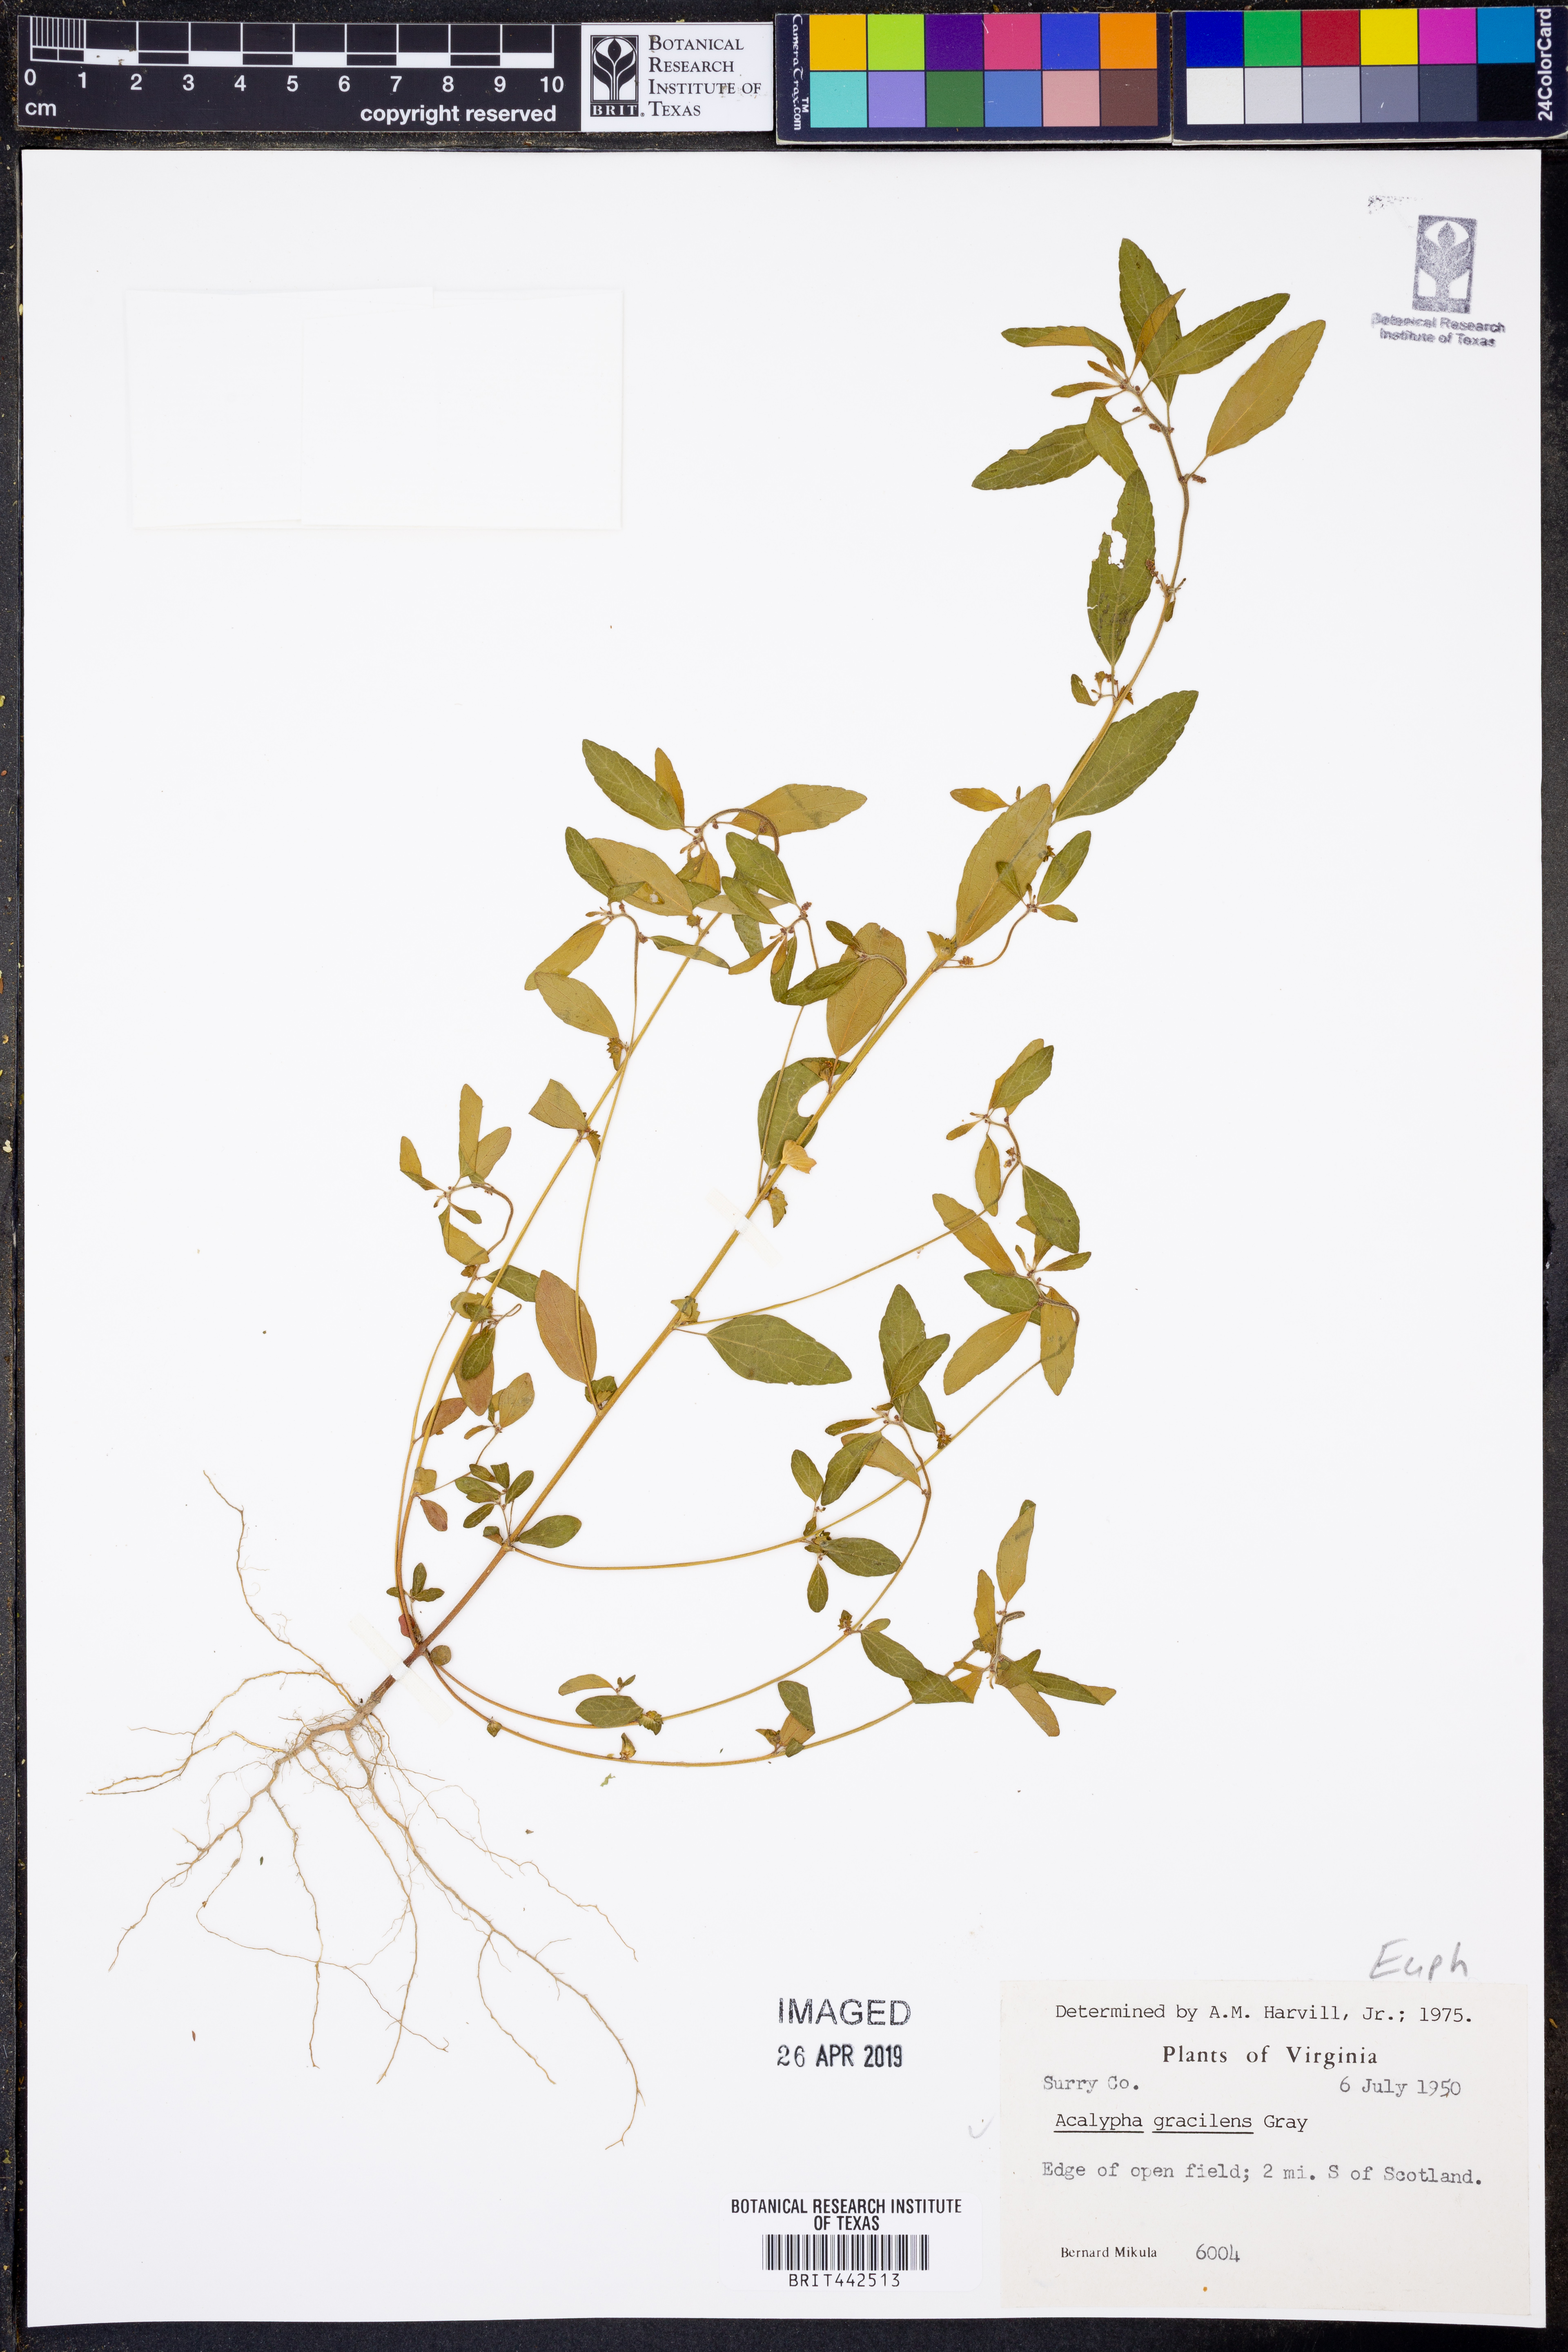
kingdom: Plantae
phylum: Tracheophyta
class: Magnoliopsida
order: Malpighiales
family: Euphorbiaceae
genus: Acalypha
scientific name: Acalypha gracilens
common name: Slender three-seeded mercury
